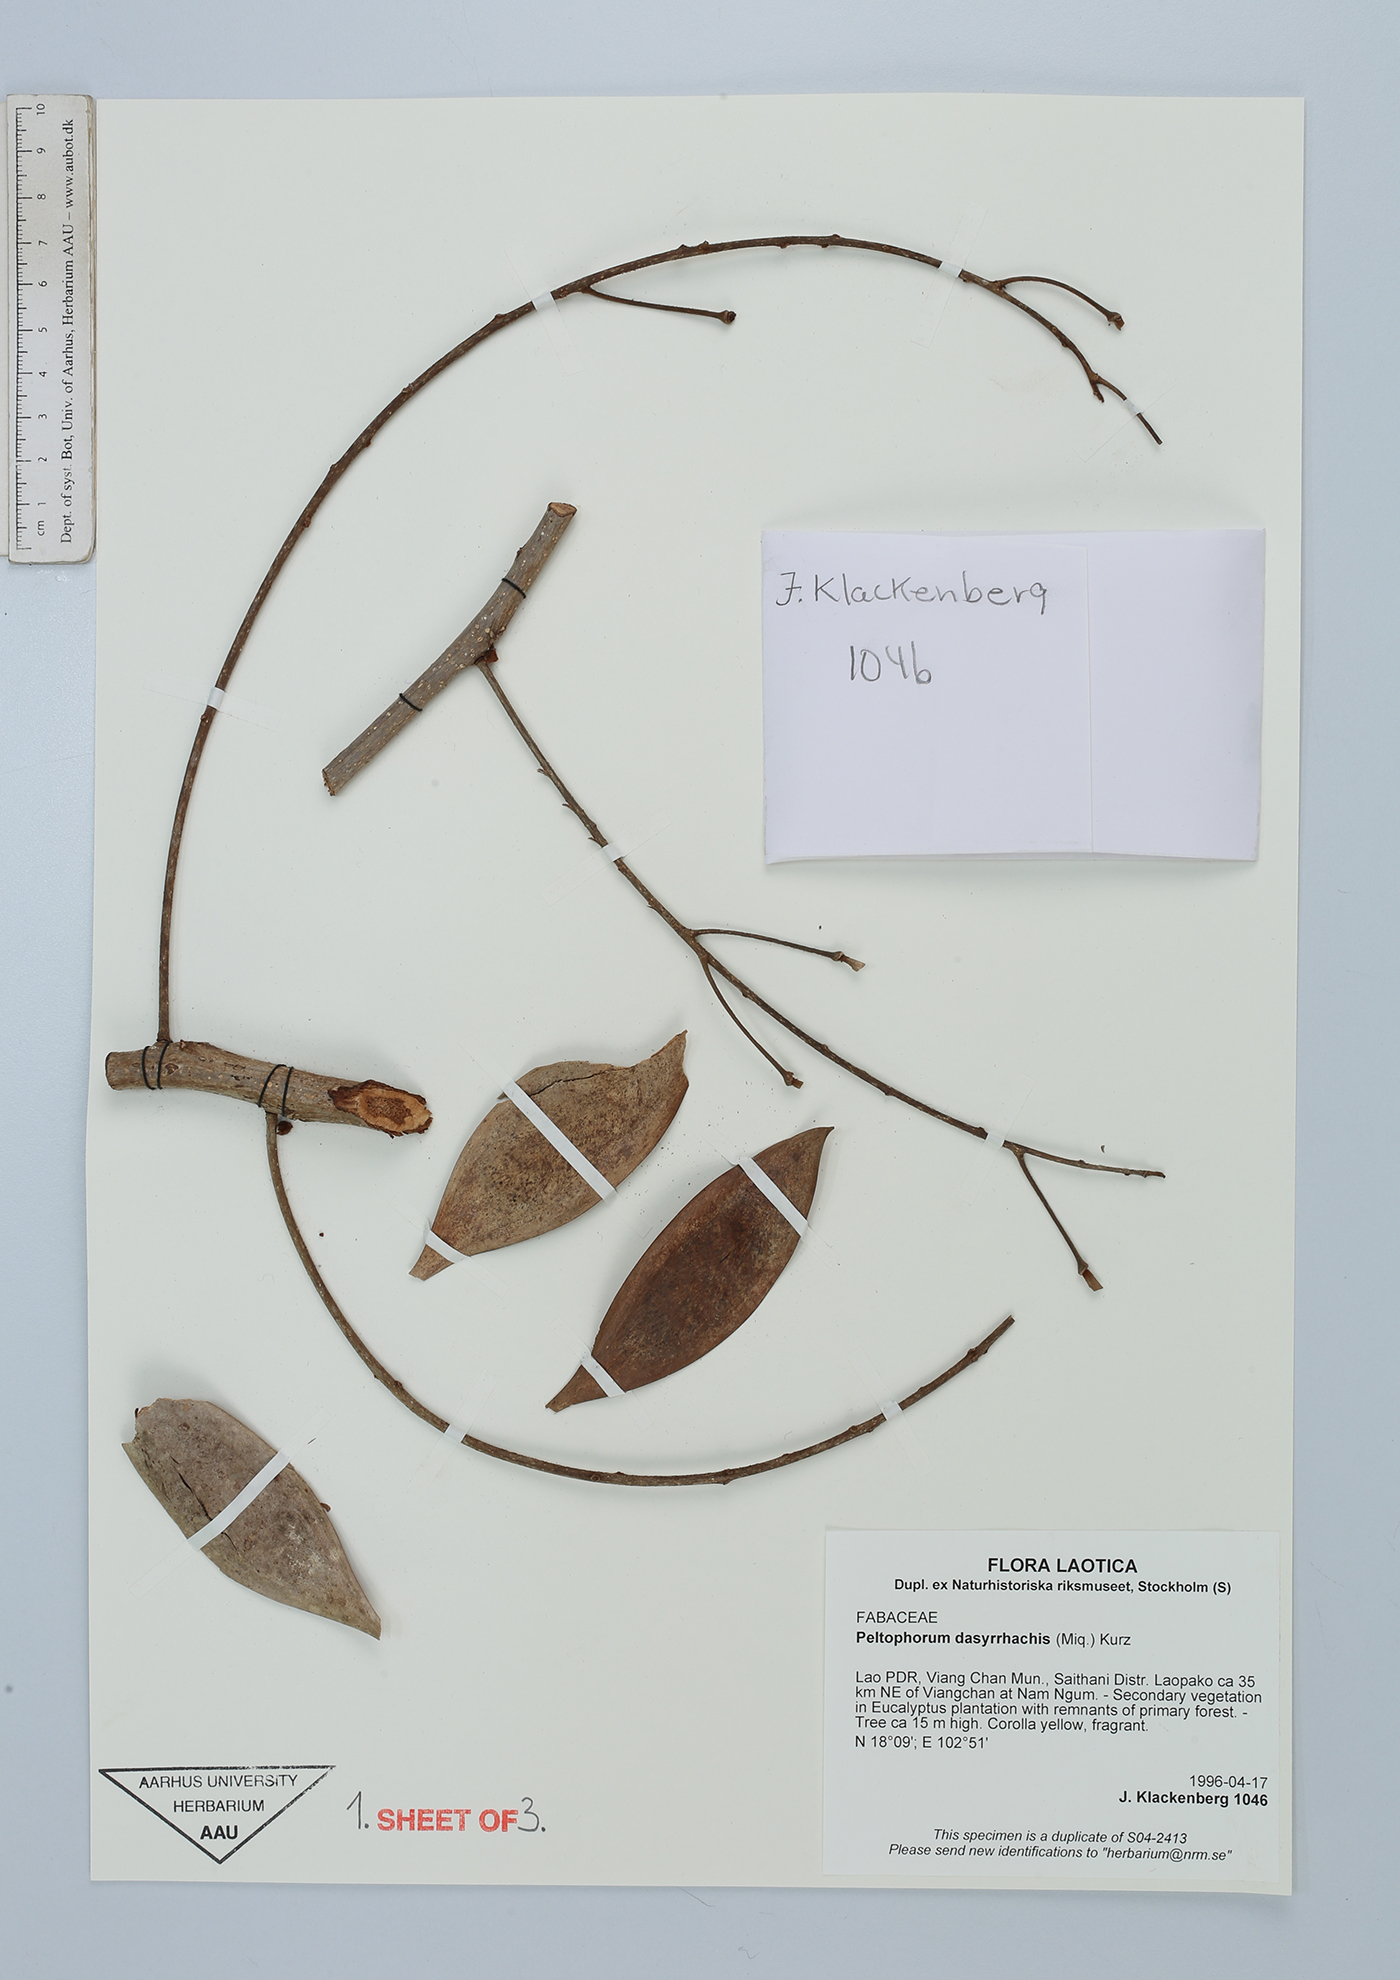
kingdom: Plantae
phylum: Tracheophyta
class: Magnoliopsida
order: Fabales
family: Fabaceae
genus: Peltophorum
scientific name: Peltophorum dasyrhachis
